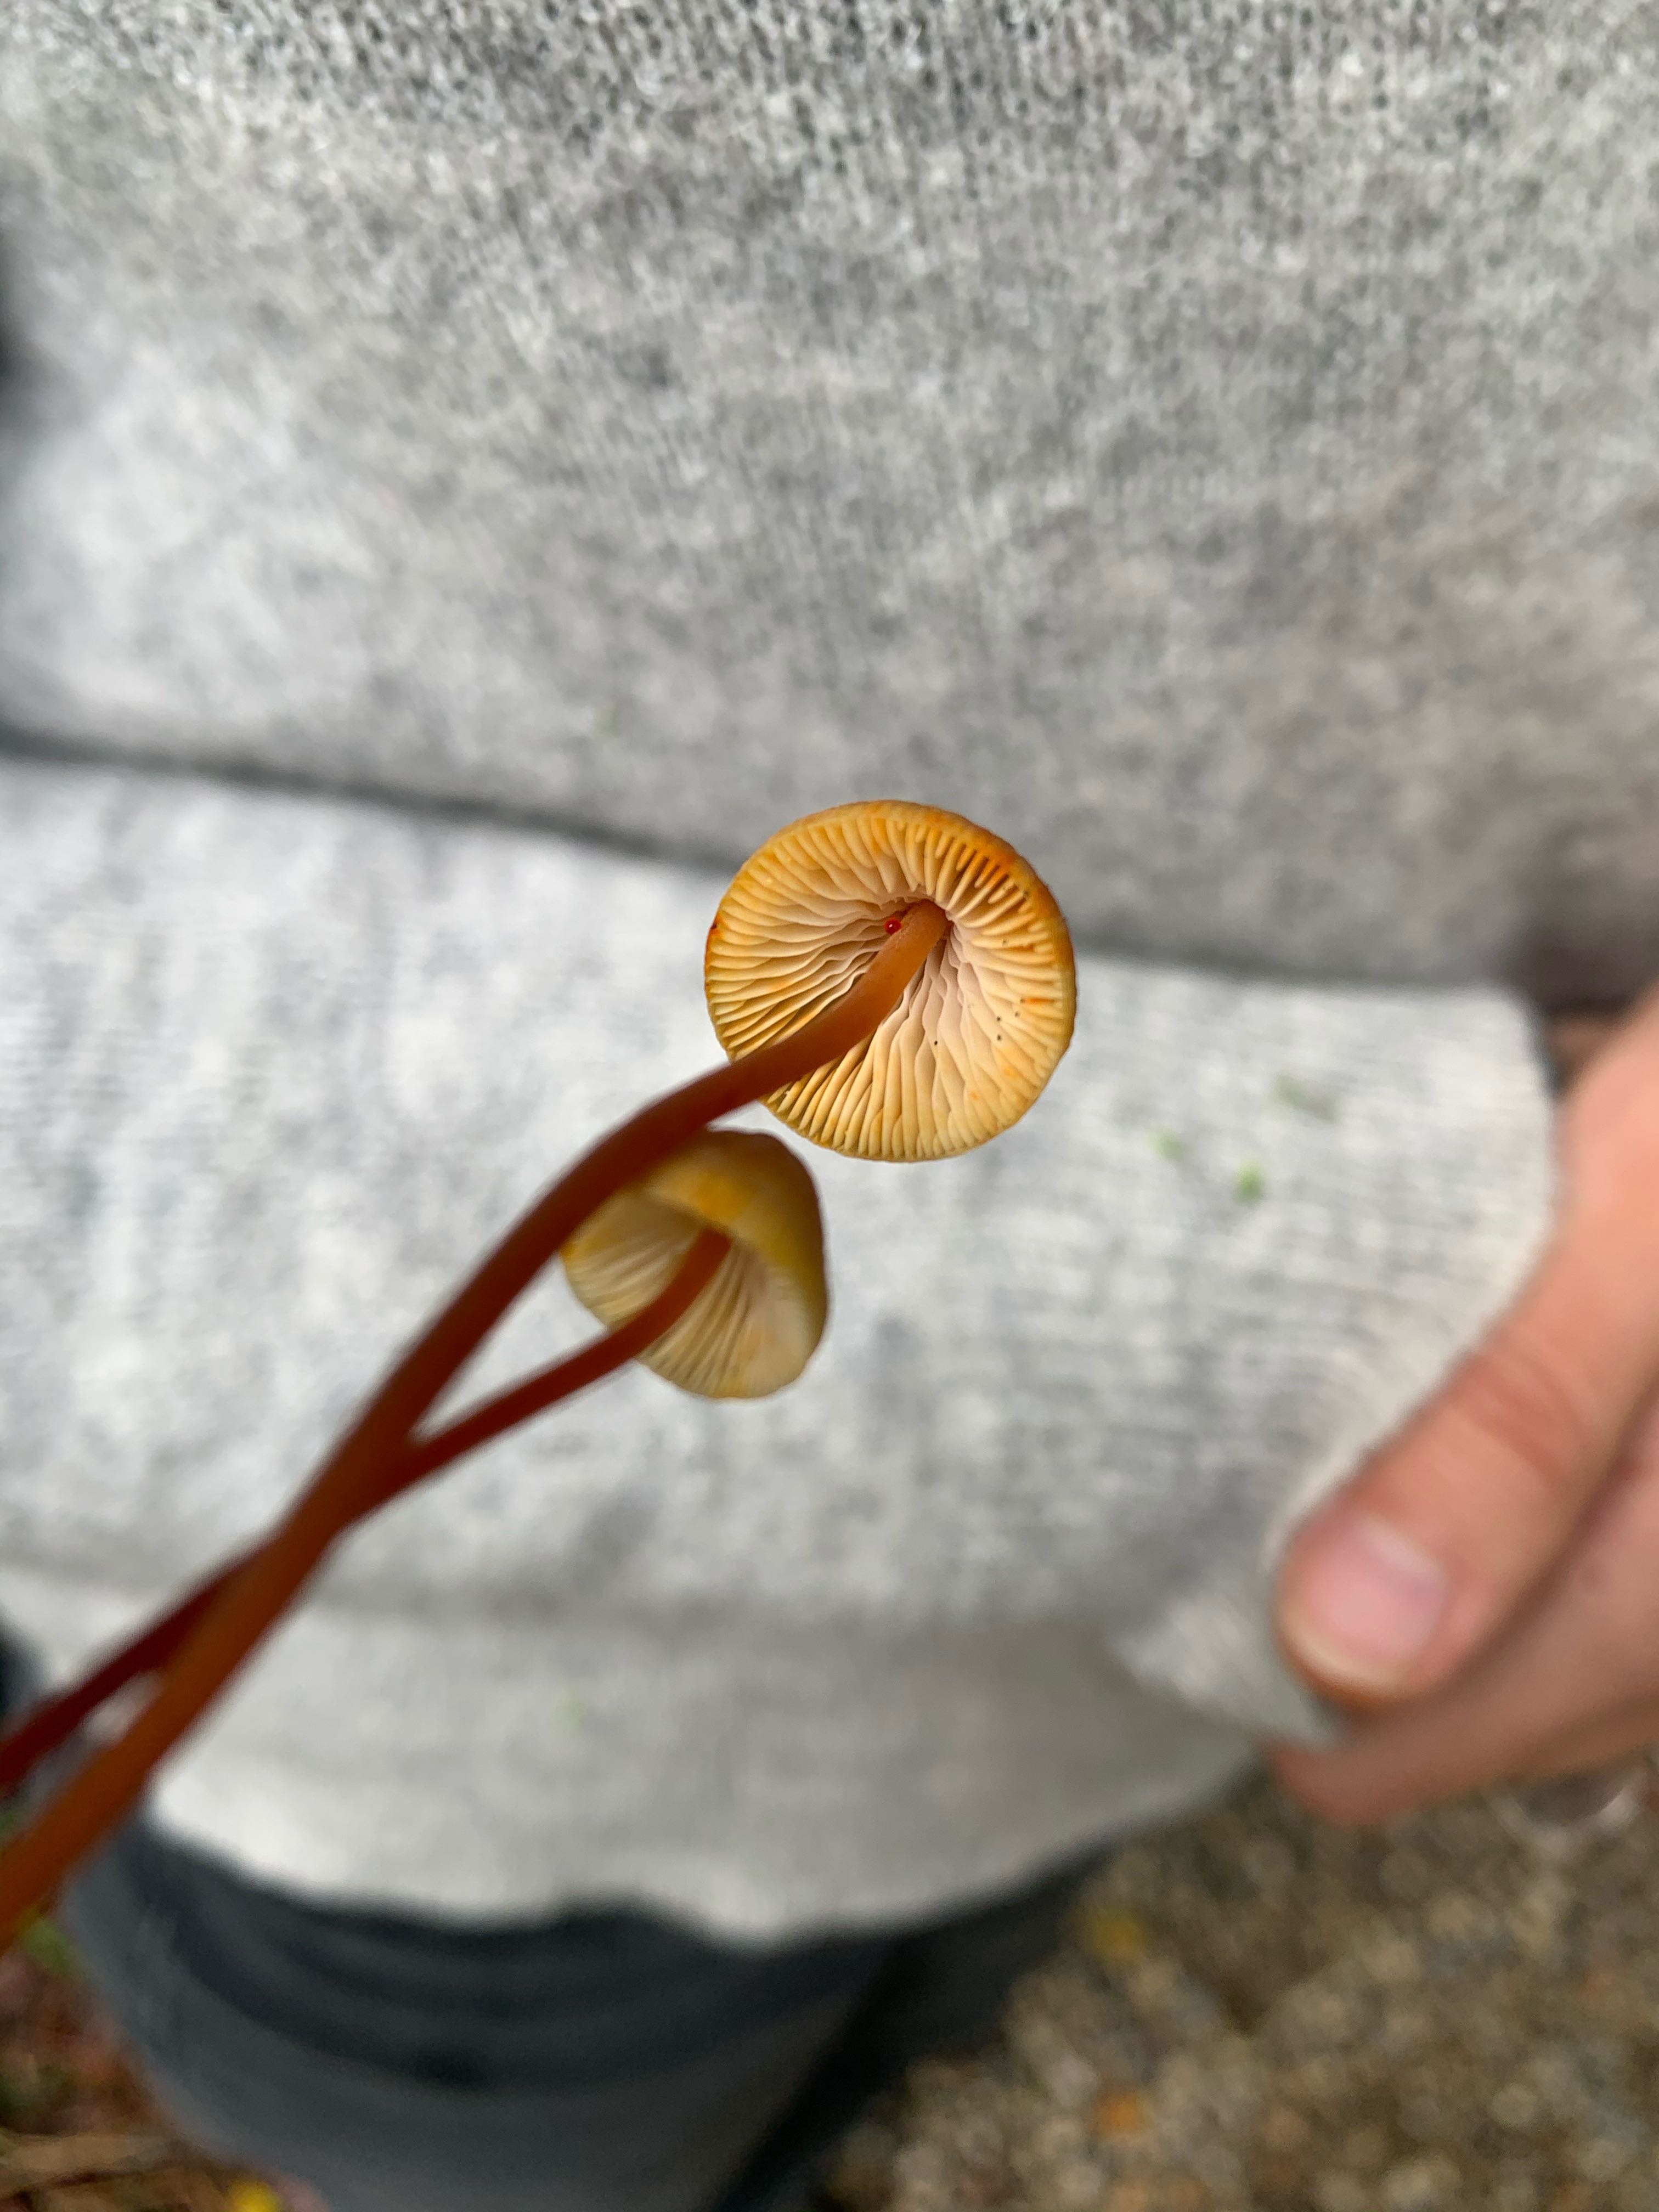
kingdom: Fungi
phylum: Basidiomycota
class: Agaricomycetes
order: Agaricales
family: Mycenaceae
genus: Mycena
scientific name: Mycena crocata
